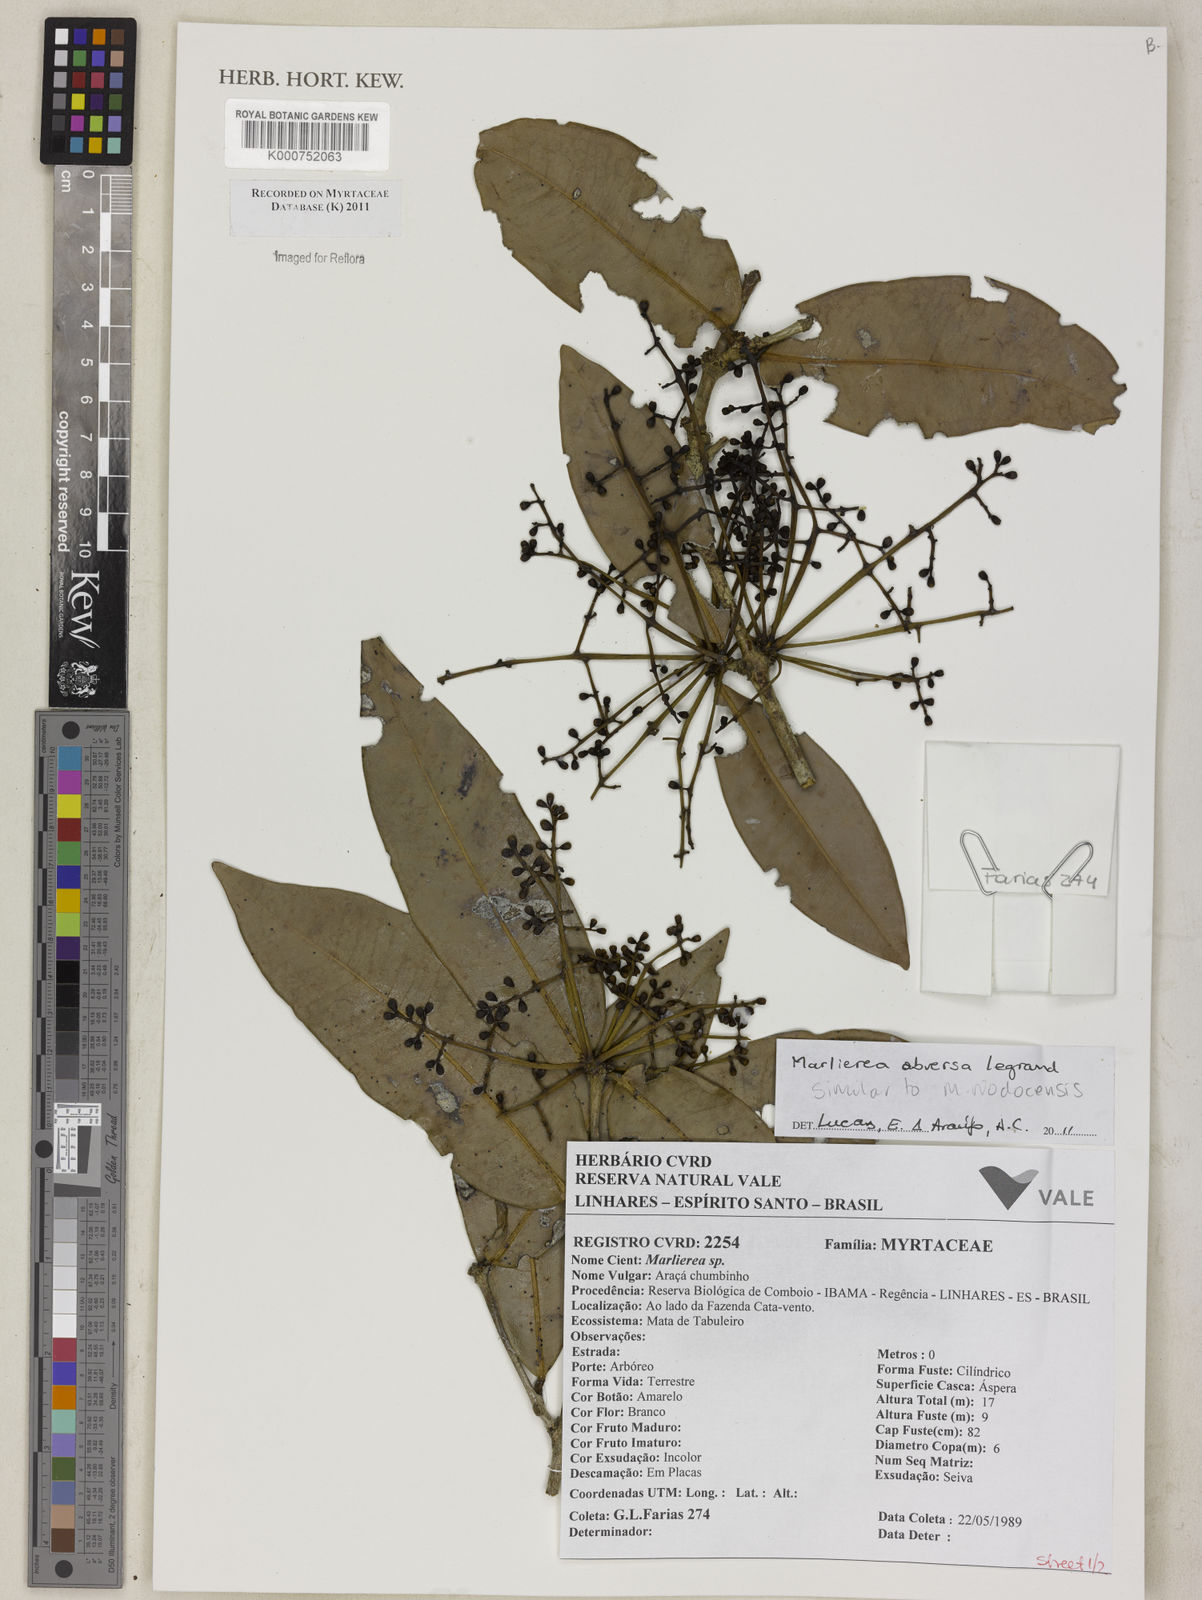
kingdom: Plantae
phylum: Tracheophyta
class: Magnoliopsida
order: Myrtales
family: Myrtaceae
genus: Myrcia
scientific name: Myrcia riodocensis
